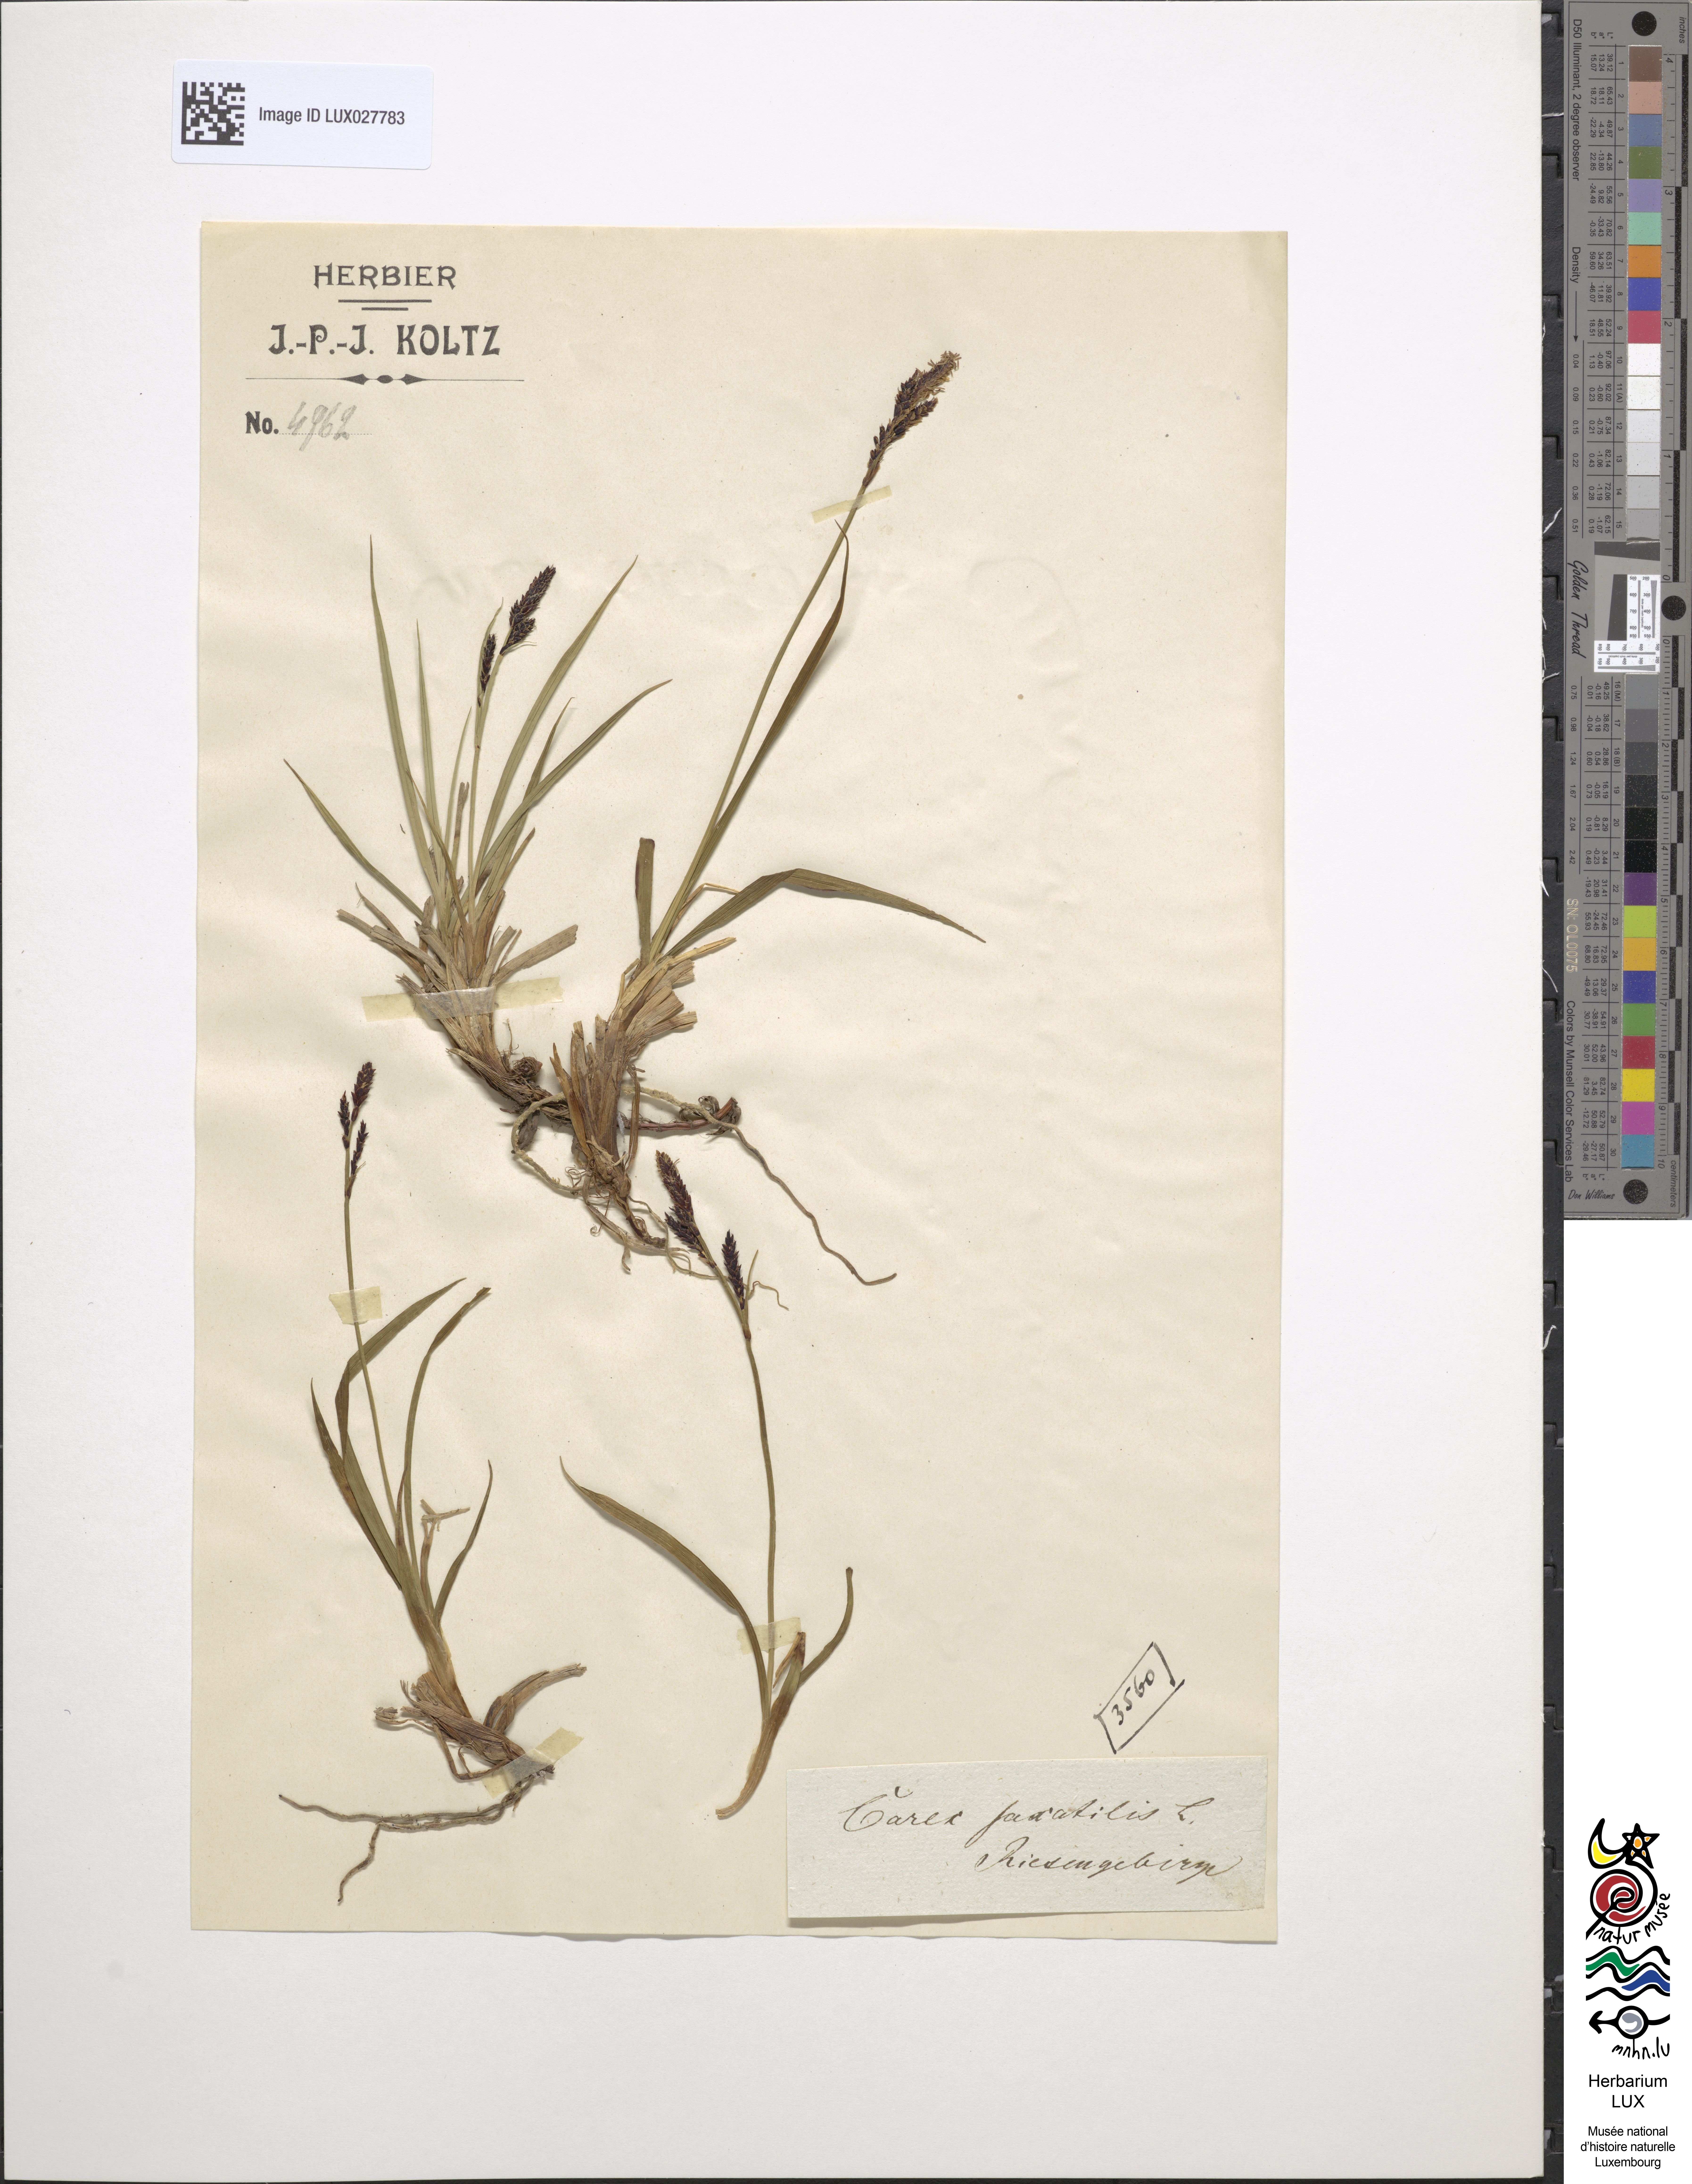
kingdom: Plantae
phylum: Tracheophyta
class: Liliopsida
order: Poales
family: Cyperaceae
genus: Carex
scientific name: Carex saxatilis
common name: Russet sedge
